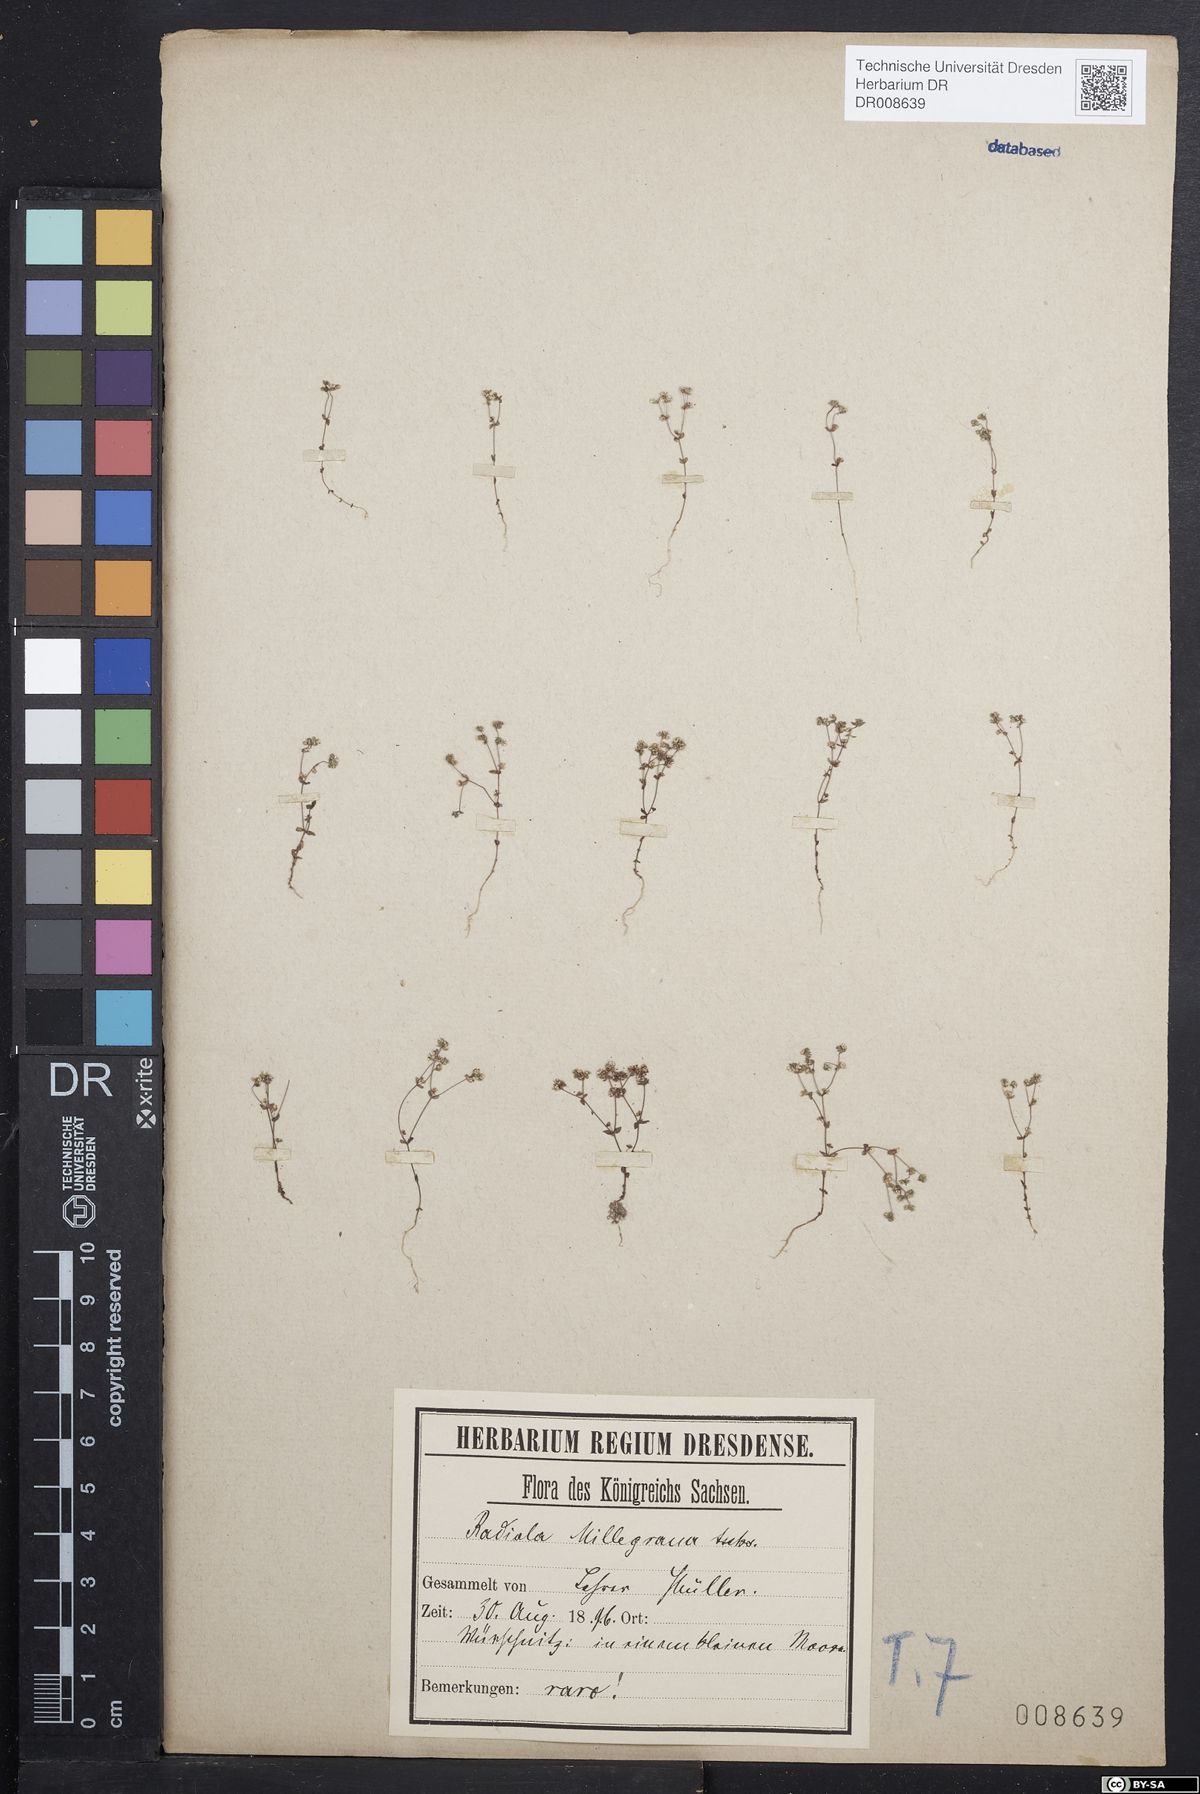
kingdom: Plantae
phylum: Tracheophyta
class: Magnoliopsida
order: Malpighiales
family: Linaceae
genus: Radiola
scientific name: Radiola linoides
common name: Allseed
